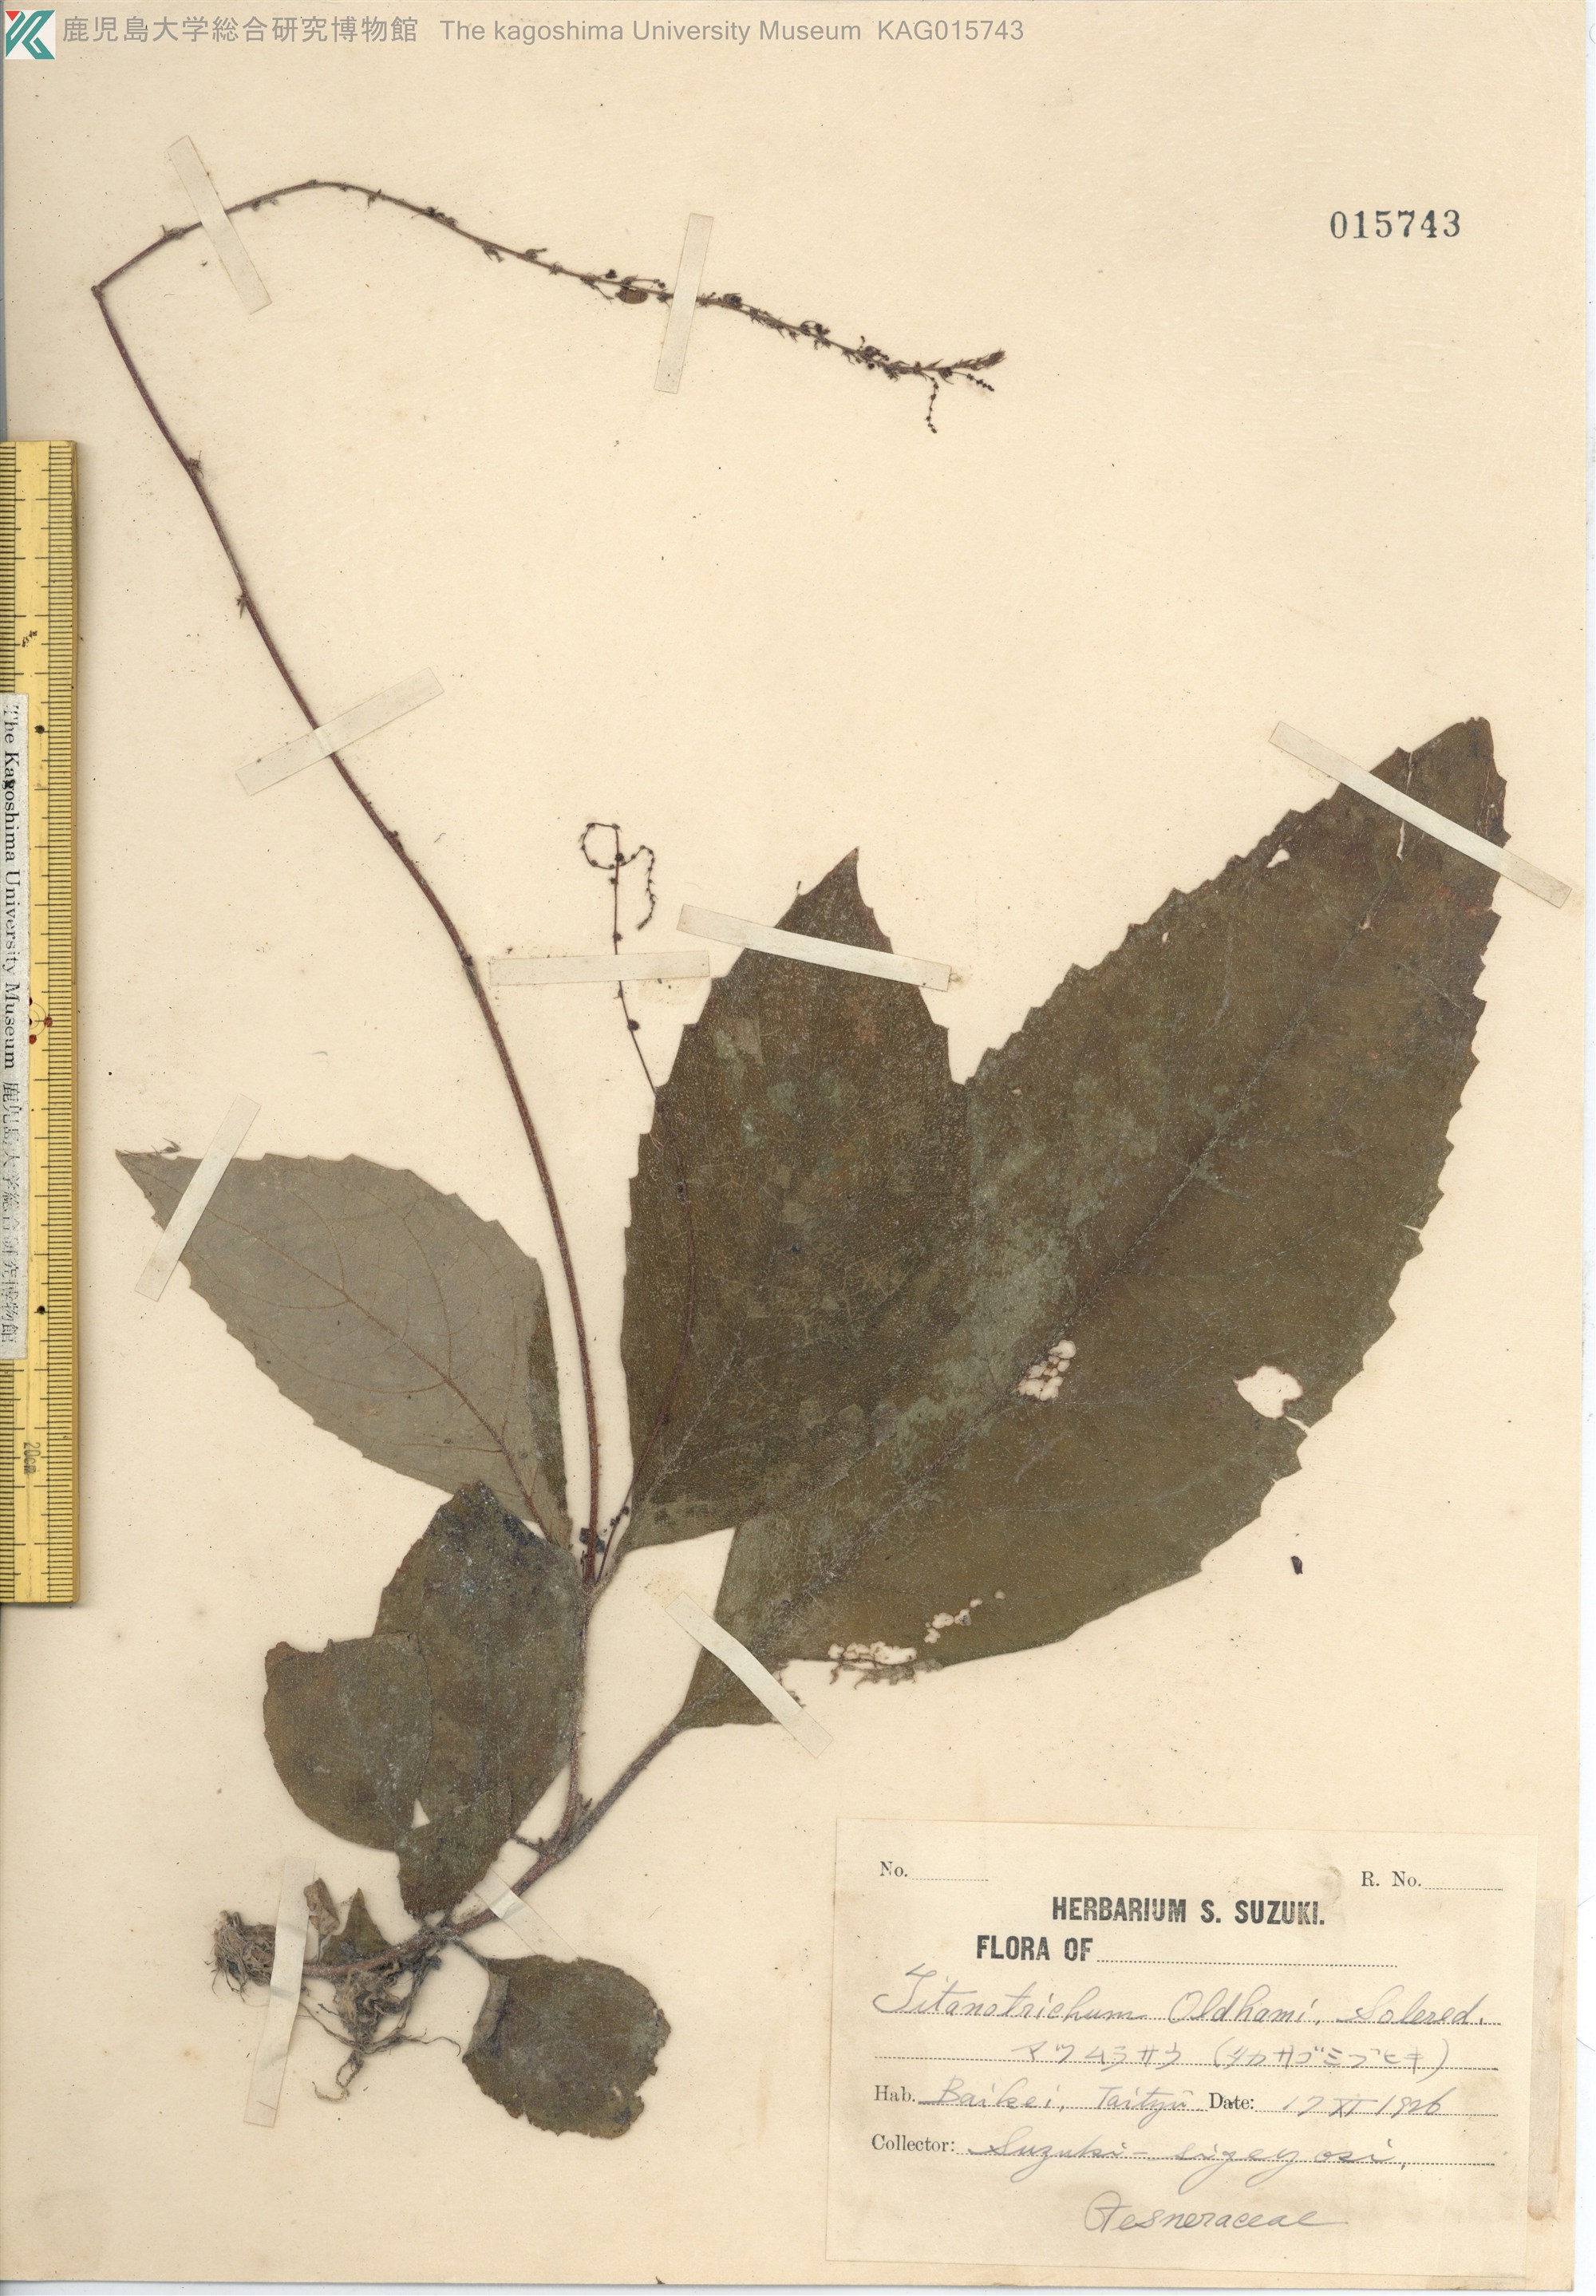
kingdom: Plantae
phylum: Tracheophyta
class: Magnoliopsida
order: Lamiales
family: Gesneriaceae
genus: Titanotrichum
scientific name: Titanotrichum oldhamii
